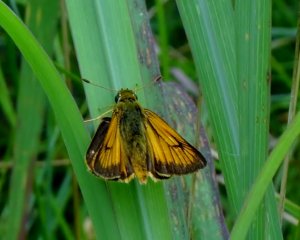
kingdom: Animalia
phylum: Arthropoda
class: Insecta
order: Lepidoptera
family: Hesperiidae
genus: Atrytone
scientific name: Atrytone delaware
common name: Delaware Skipper
